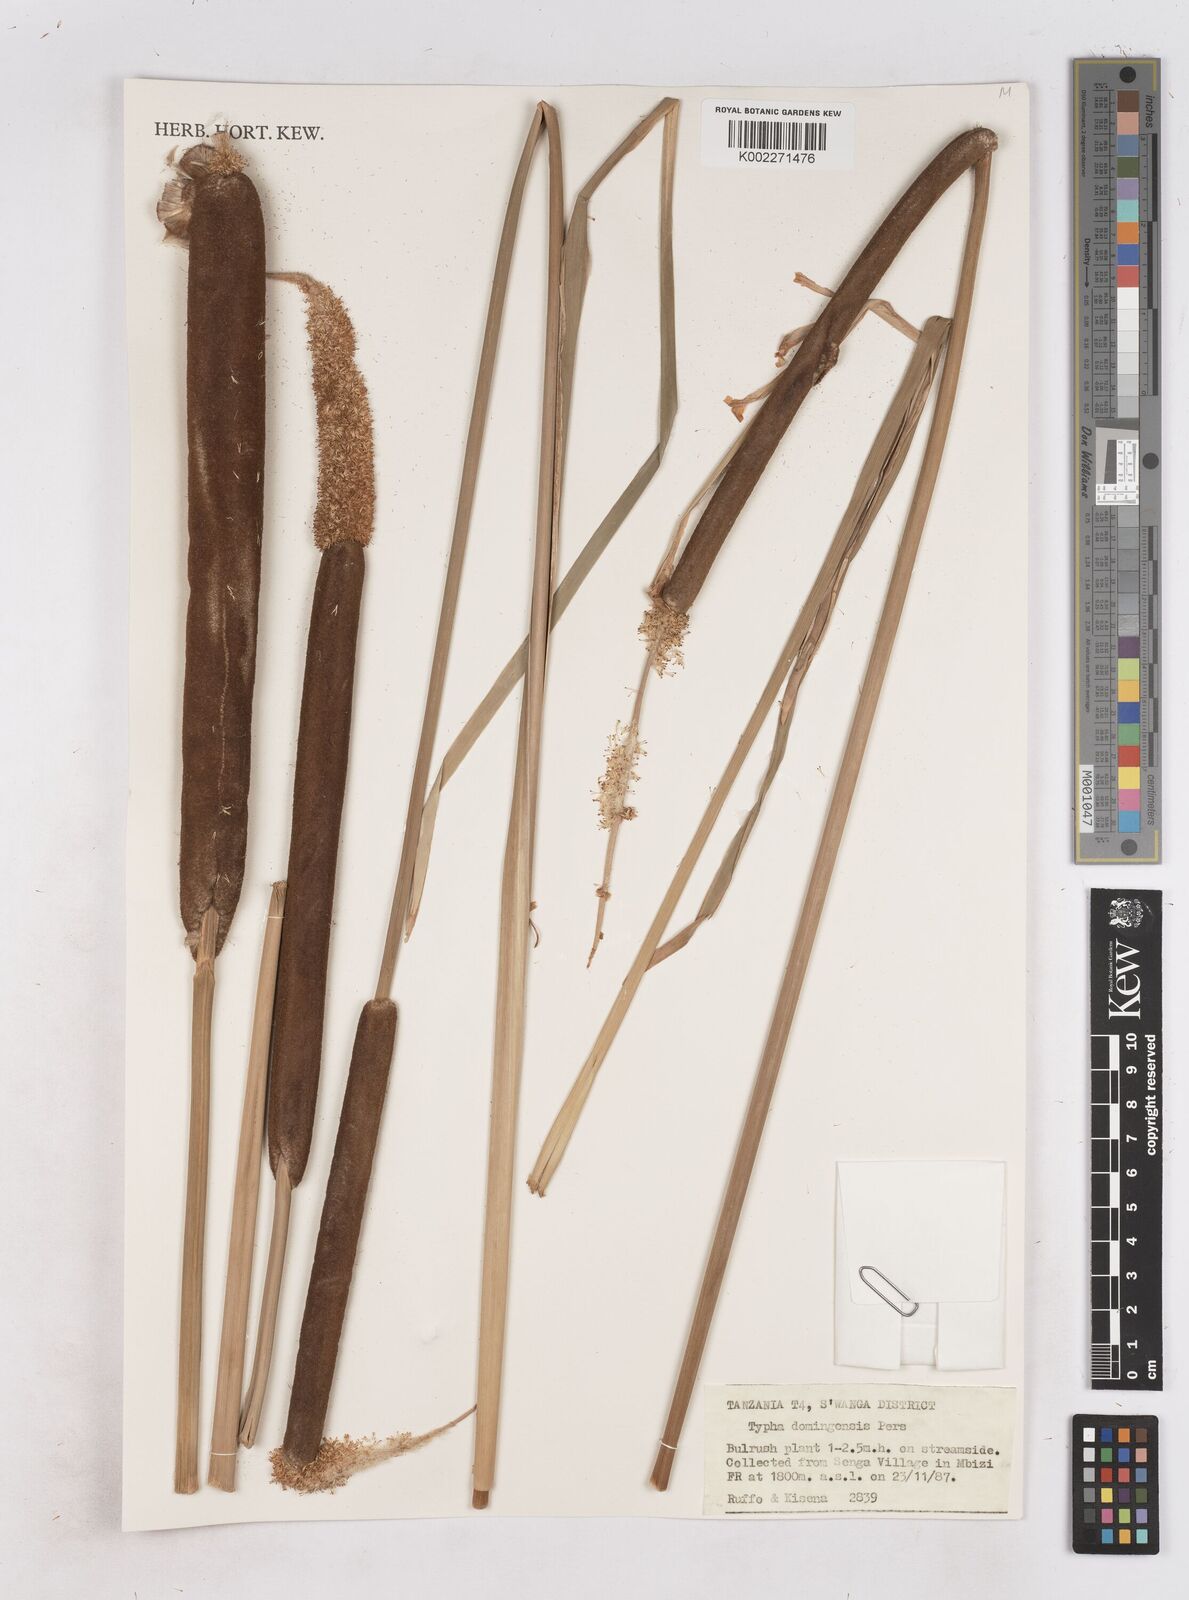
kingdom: Plantae
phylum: Tracheophyta
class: Liliopsida
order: Poales
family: Typhaceae
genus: Typha
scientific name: Typha domingensis
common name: Southern cattail
